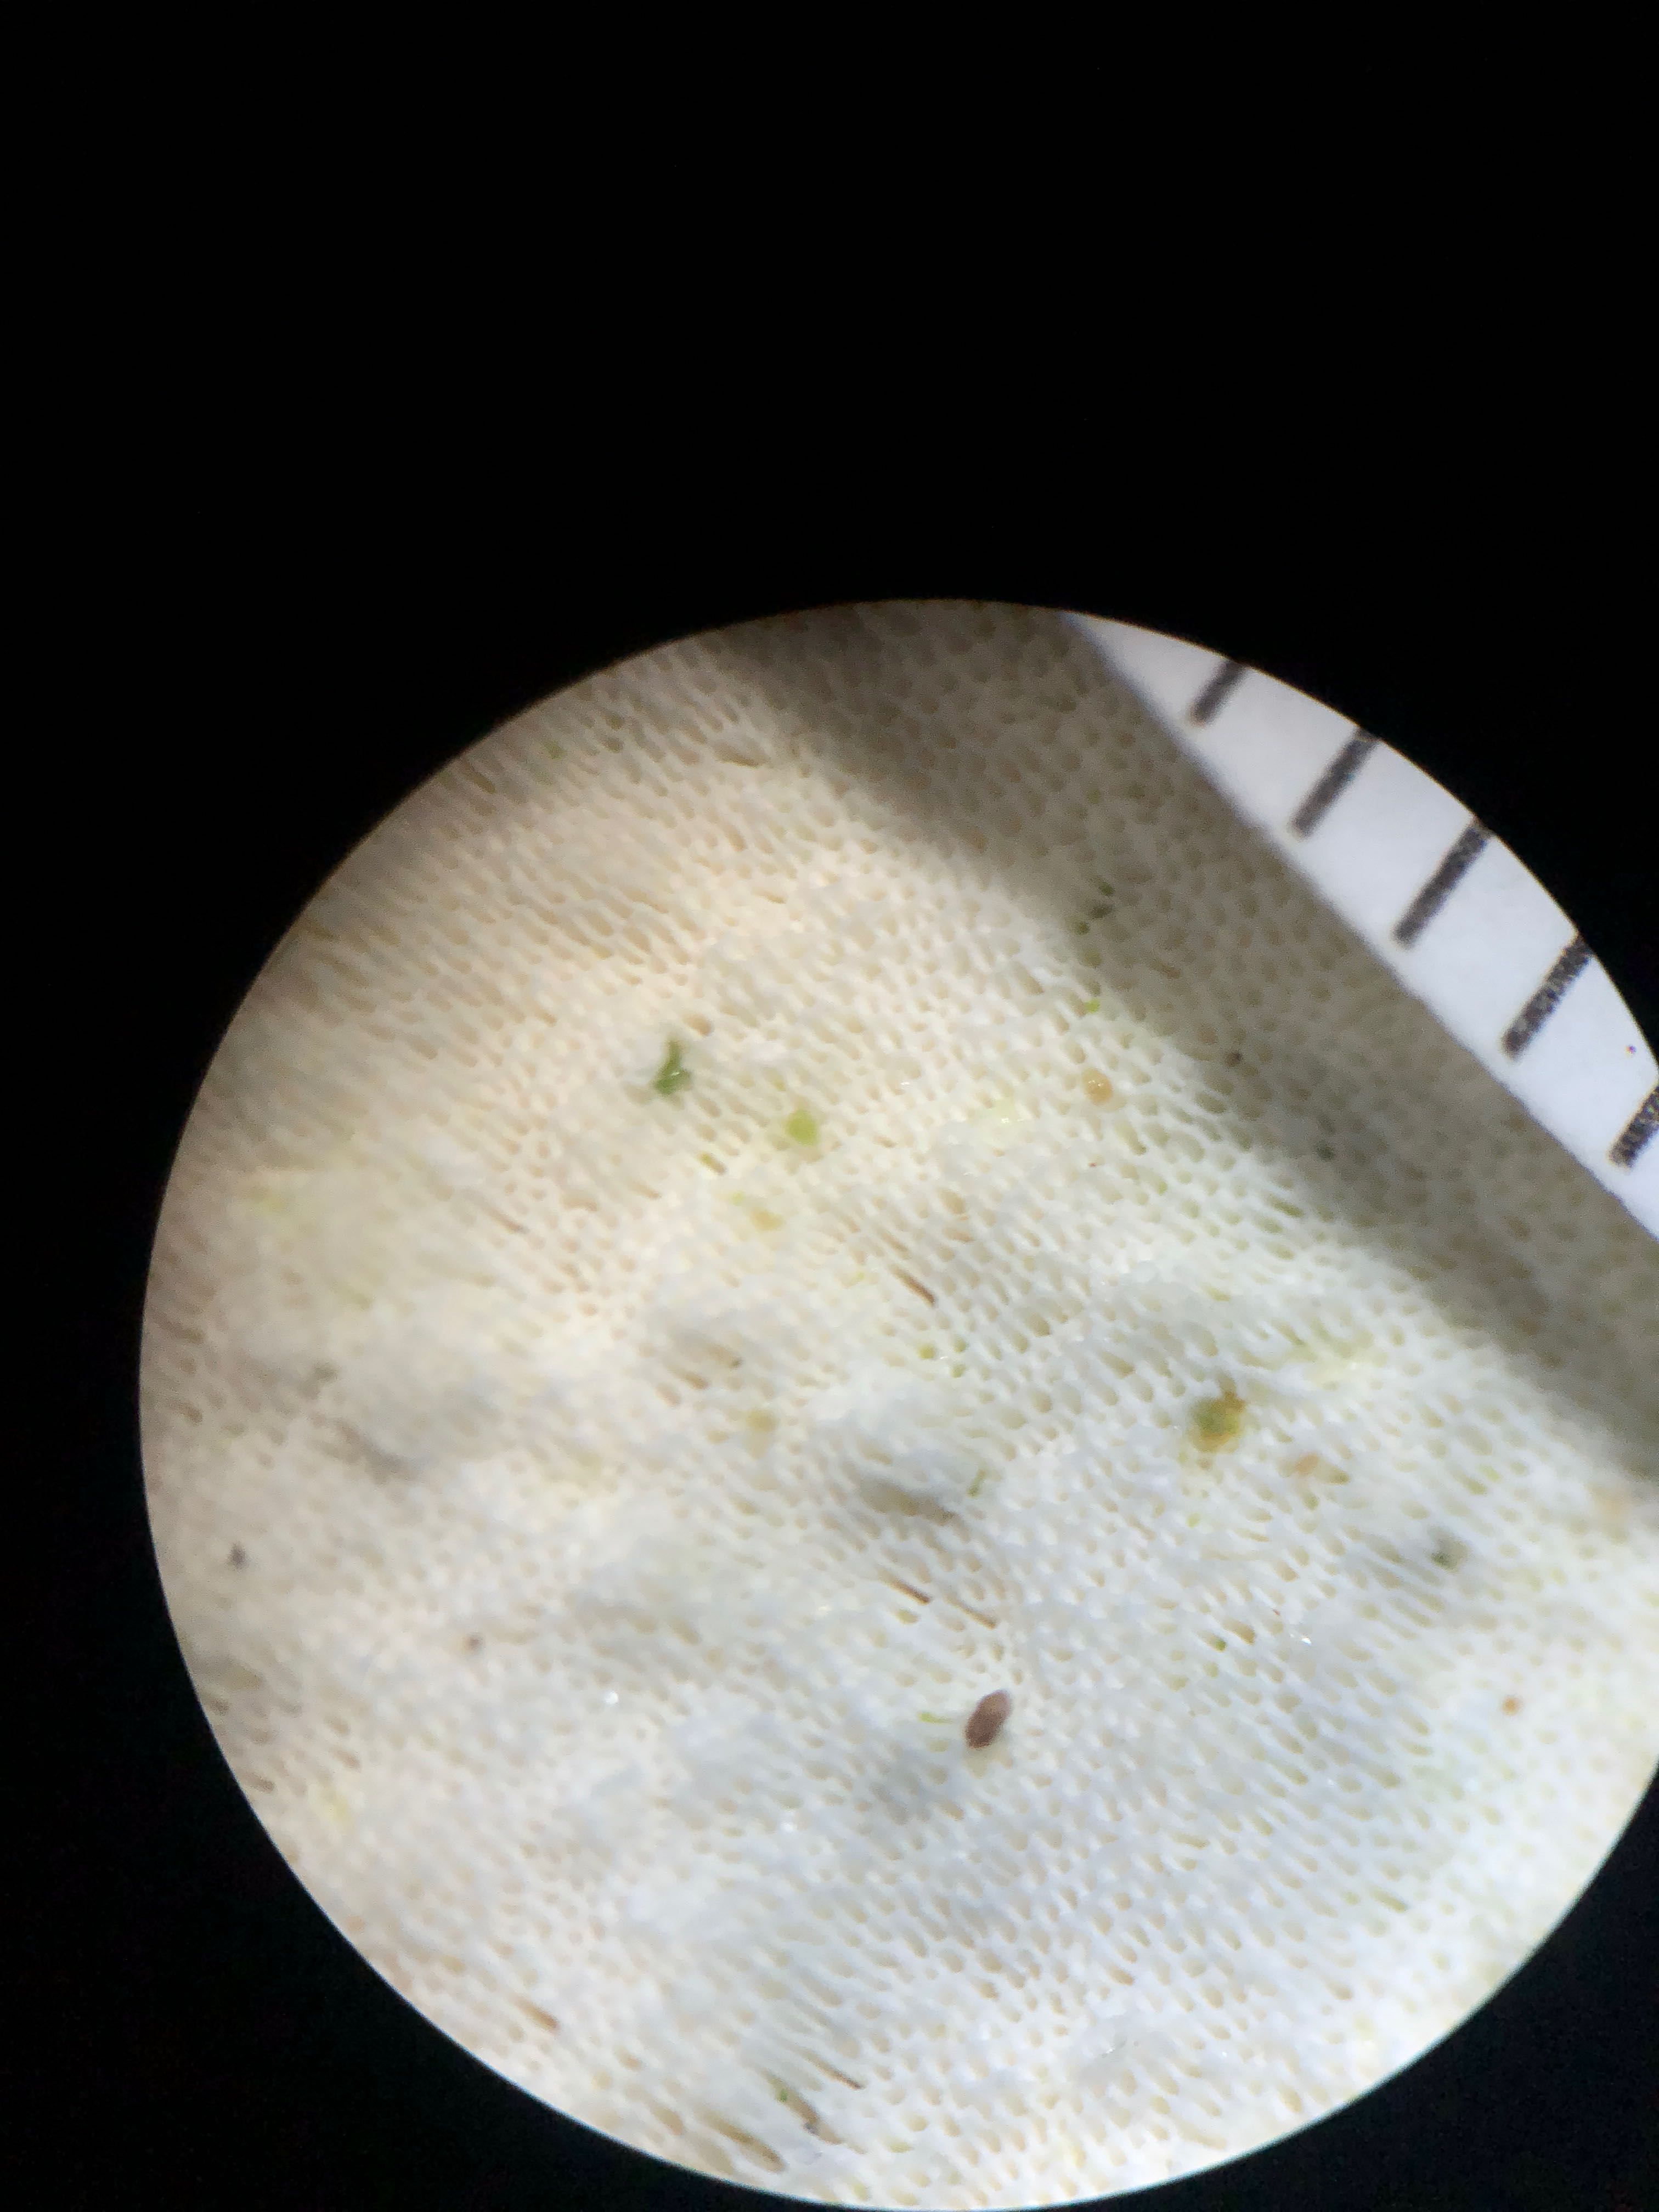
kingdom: Fungi
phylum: Basidiomycota
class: Agaricomycetes
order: Hymenochaetales
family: Rickenellaceae
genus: Sidera
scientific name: Sidera vulgaris
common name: fin flødeporesvamp
